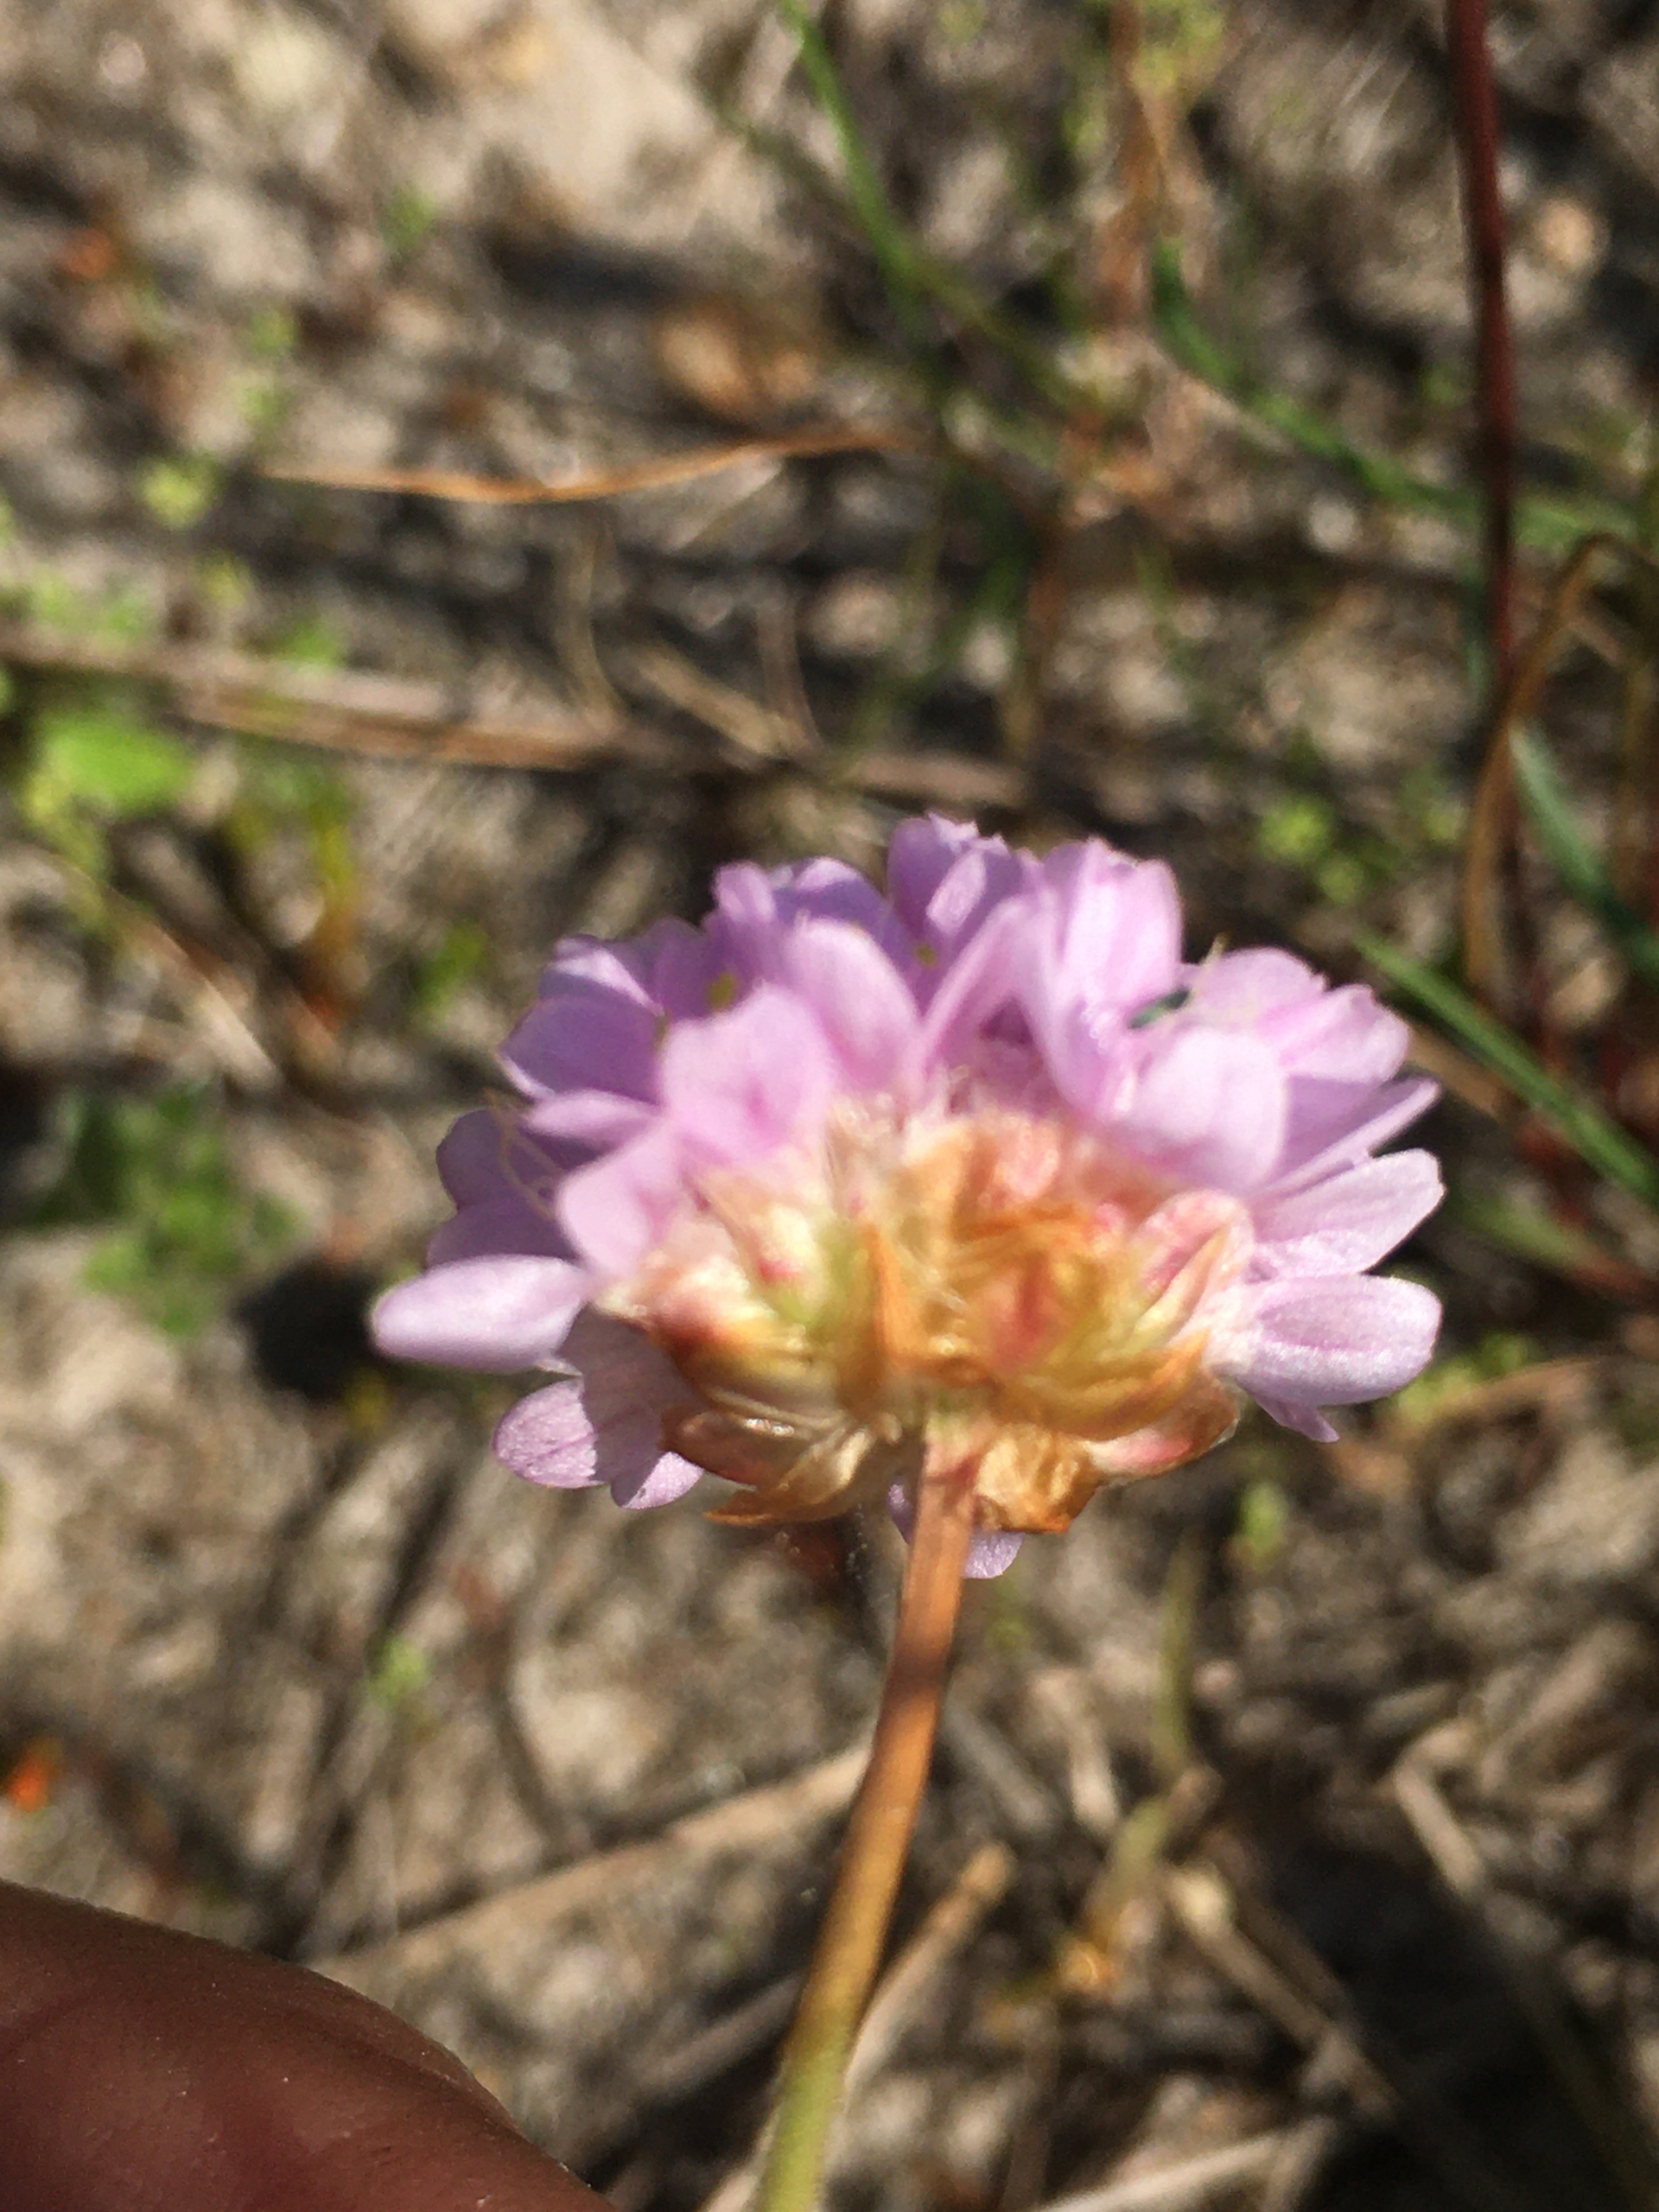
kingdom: Plantae
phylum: Tracheophyta
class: Magnoliopsida
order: Caryophyllales
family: Plumbaginaceae
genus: Armeria
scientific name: Armeria maritima
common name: Vej-engelskgræs
